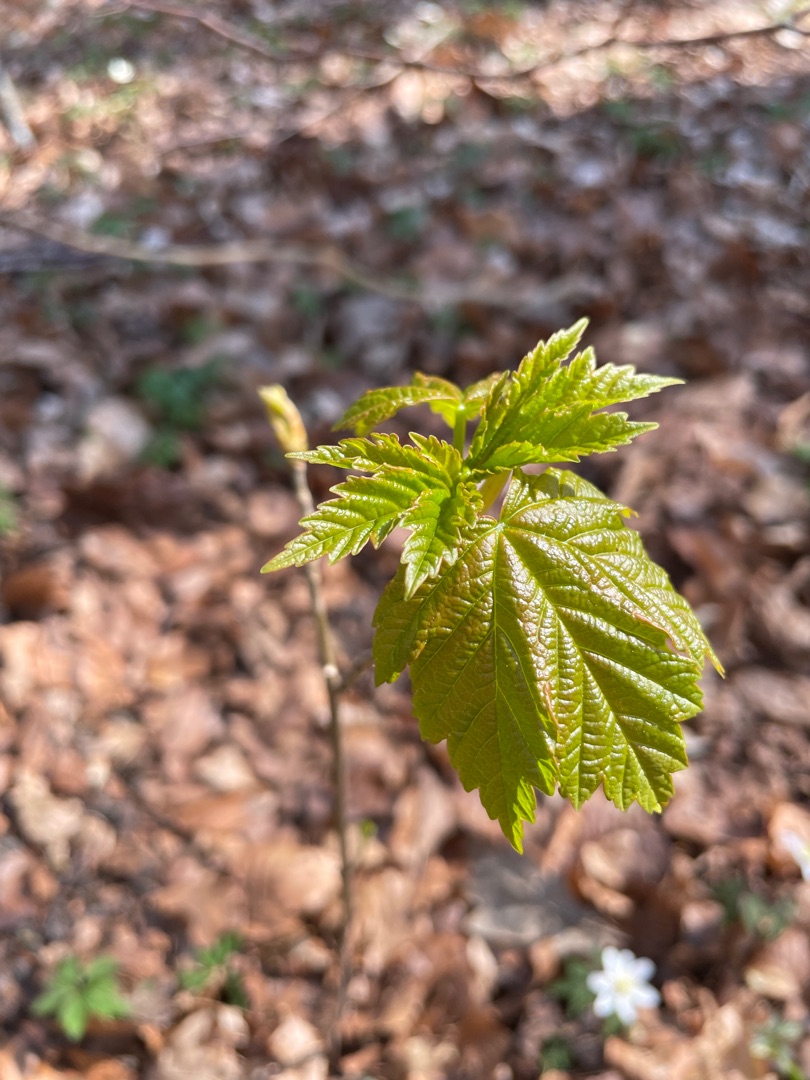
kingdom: Plantae
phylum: Tracheophyta
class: Magnoliopsida
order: Sapindales
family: Sapindaceae
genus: Acer
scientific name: Acer pseudoplatanus
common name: Ahorn
